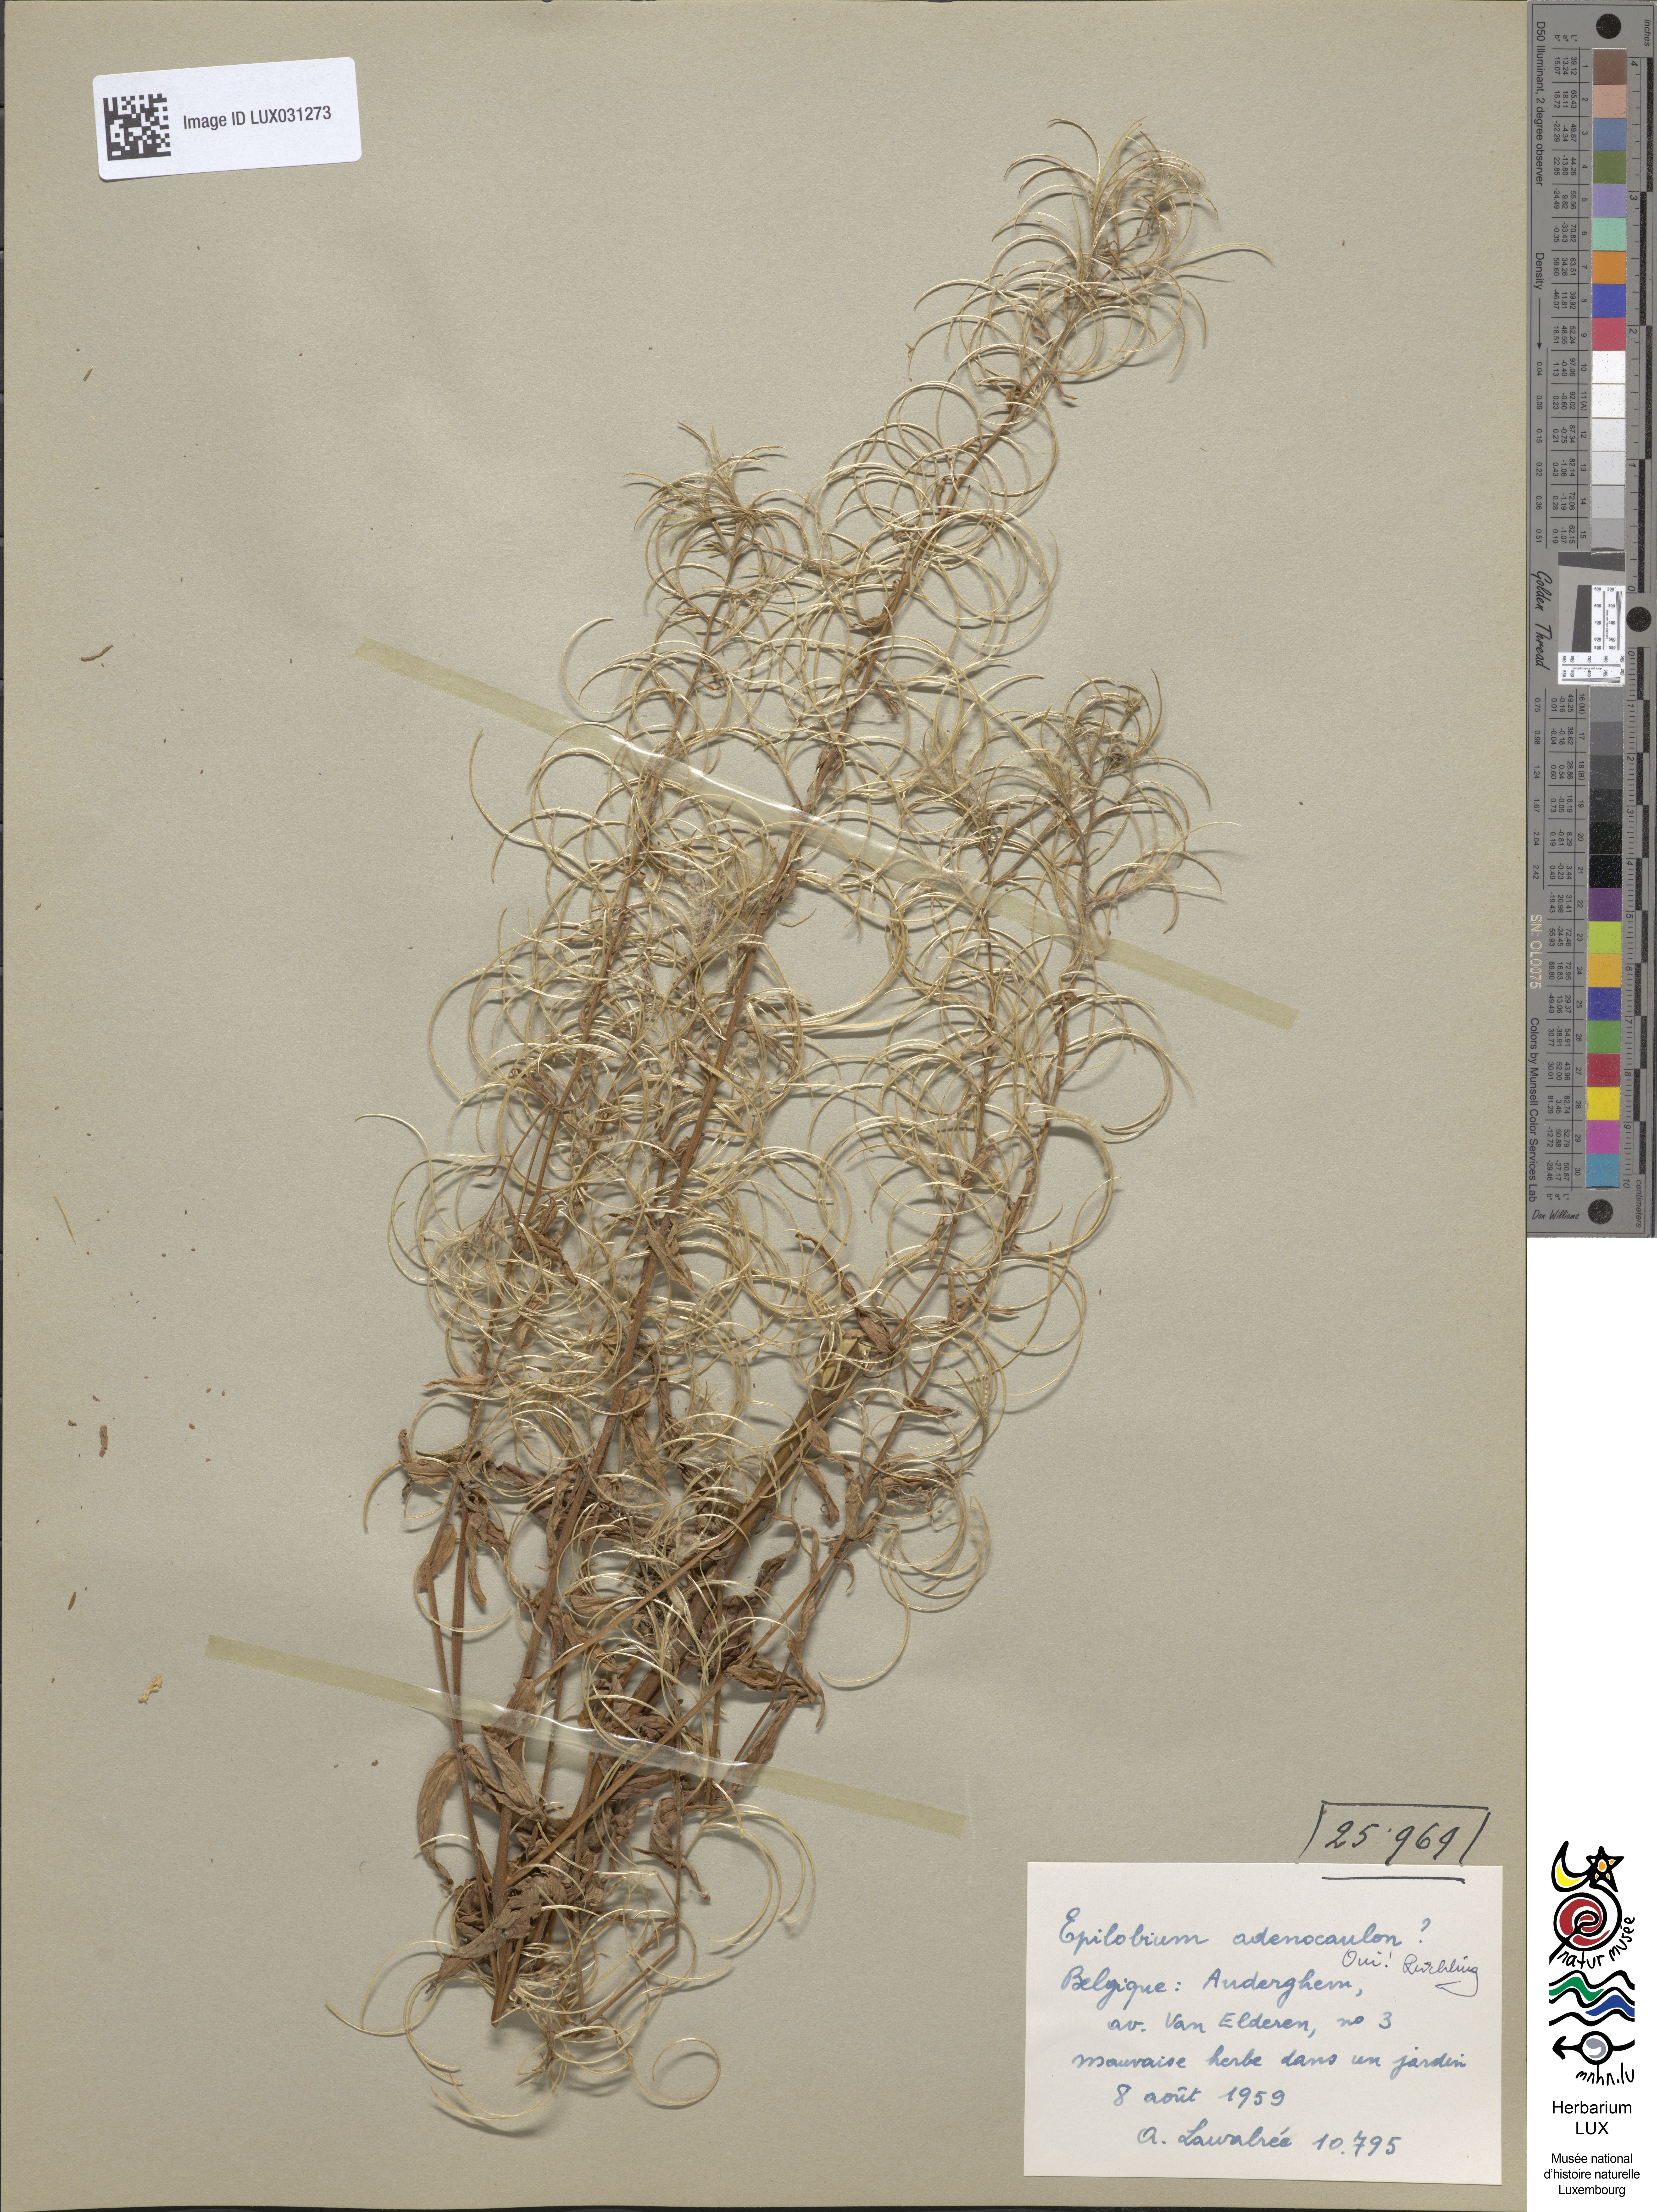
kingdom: Plantae
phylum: Tracheophyta
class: Magnoliopsida
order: Myrtales
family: Onagraceae
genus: Epilobium
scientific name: Epilobium ciliatum
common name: American willowherb
